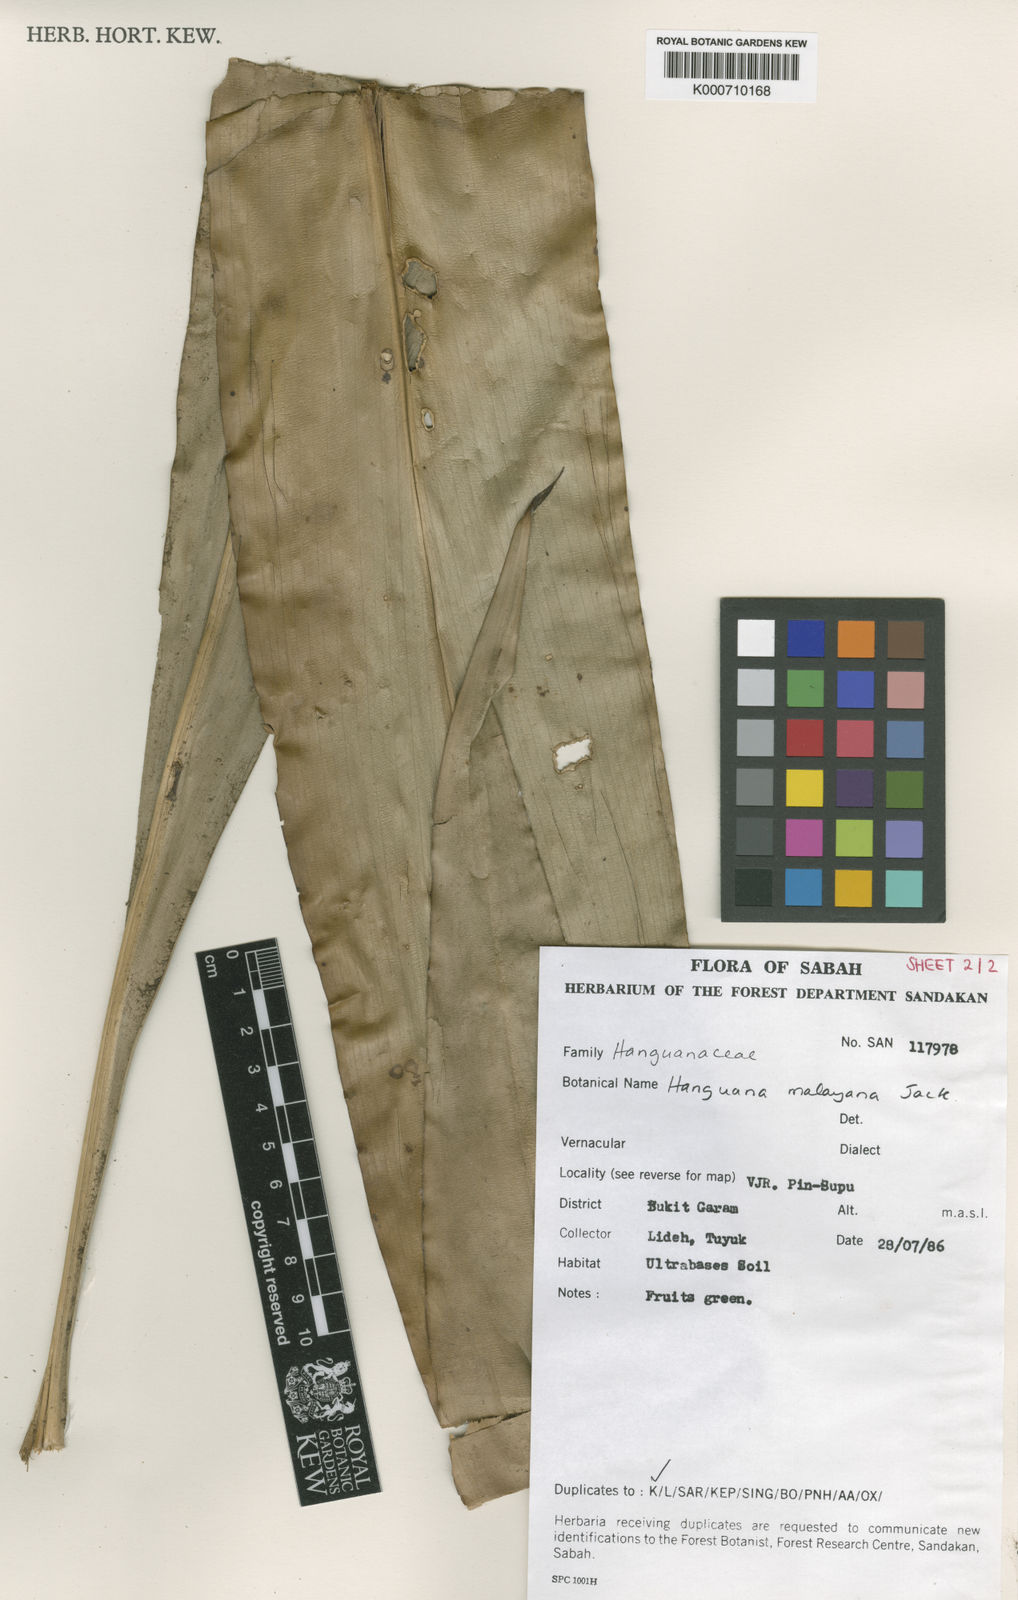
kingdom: Plantae
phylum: Tracheophyta
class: Liliopsida
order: Commelinales
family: Hanguanaceae
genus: Hanguana
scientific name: Hanguana malayana
